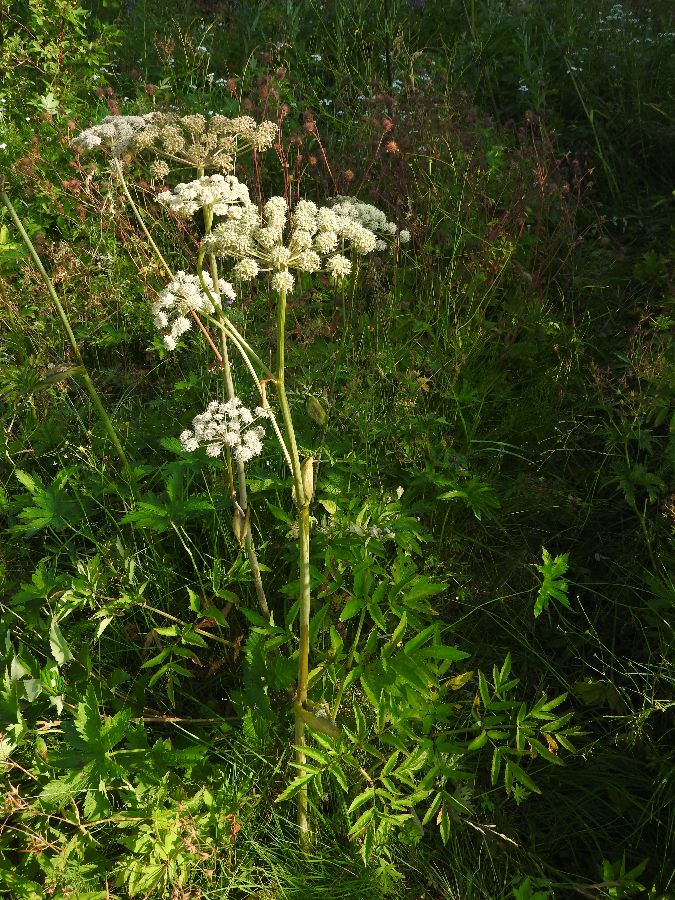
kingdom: Plantae
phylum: Tracheophyta
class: Magnoliopsida
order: Apiales
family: Apiaceae
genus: Angelica
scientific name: Angelica sylvestris
